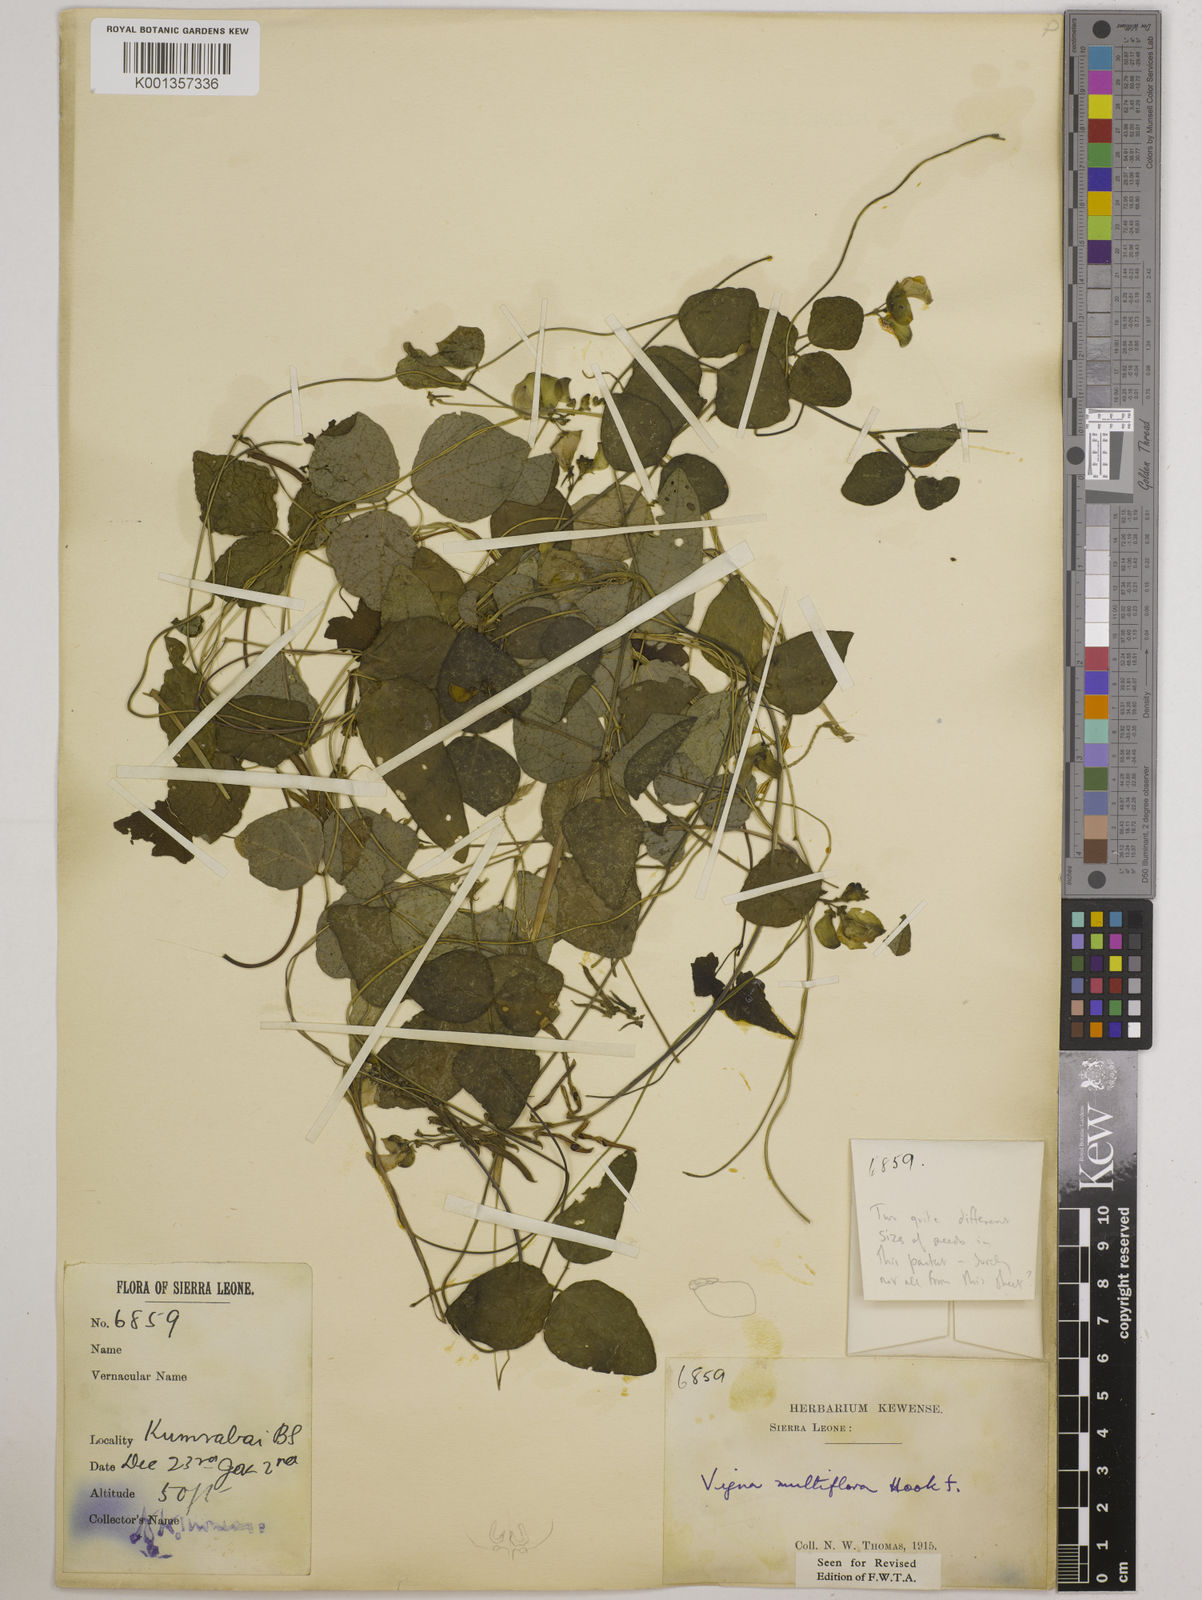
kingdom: Plantae
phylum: Tracheophyta
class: Magnoliopsida
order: Fabales
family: Fabaceae
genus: Vigna
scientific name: Vigna gracilis
